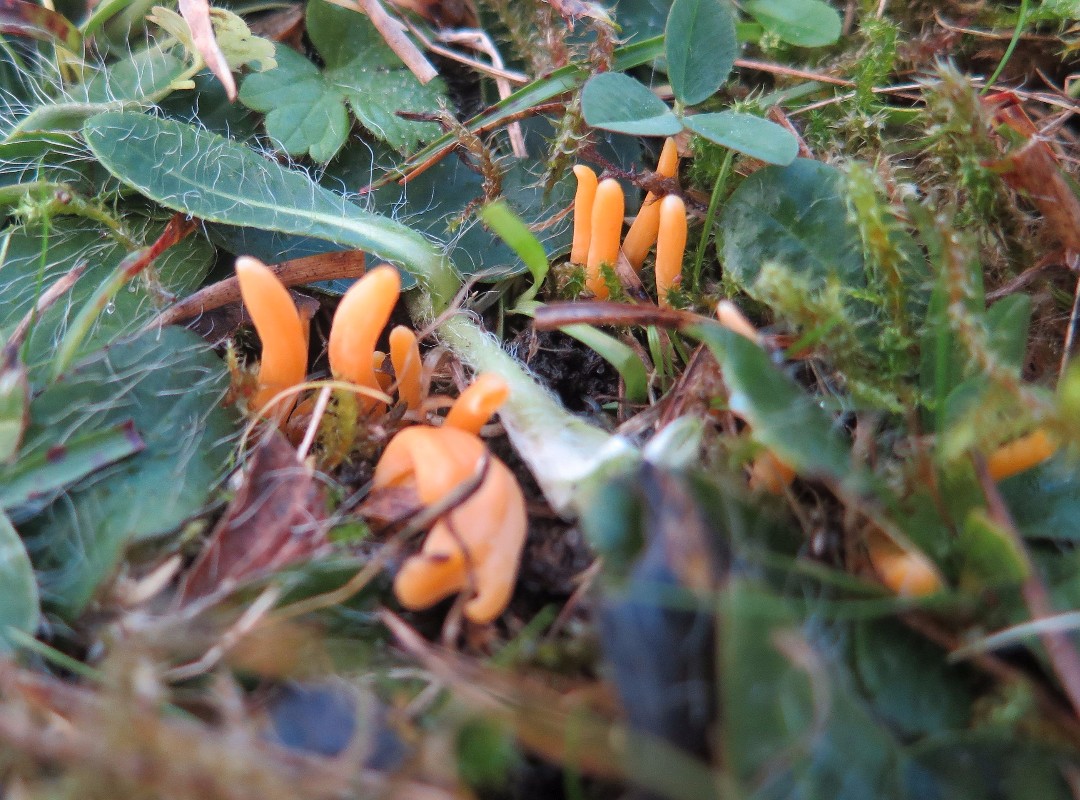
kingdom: Fungi
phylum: Basidiomycota
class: Agaricomycetes
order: Agaricales
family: Clavariaceae
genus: Clavulinopsis
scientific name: Clavulinopsis luteoalba
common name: abrikos-køllesvamp
